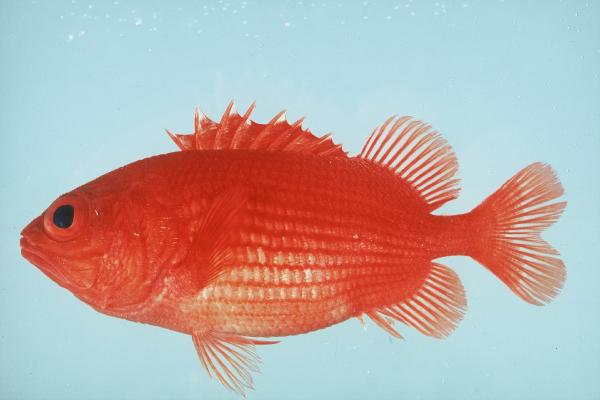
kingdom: Animalia
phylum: Chordata
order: Beryciformes
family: Holocentridae
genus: Plectrypops
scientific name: Plectrypops lima
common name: Cardinal soldierfish
